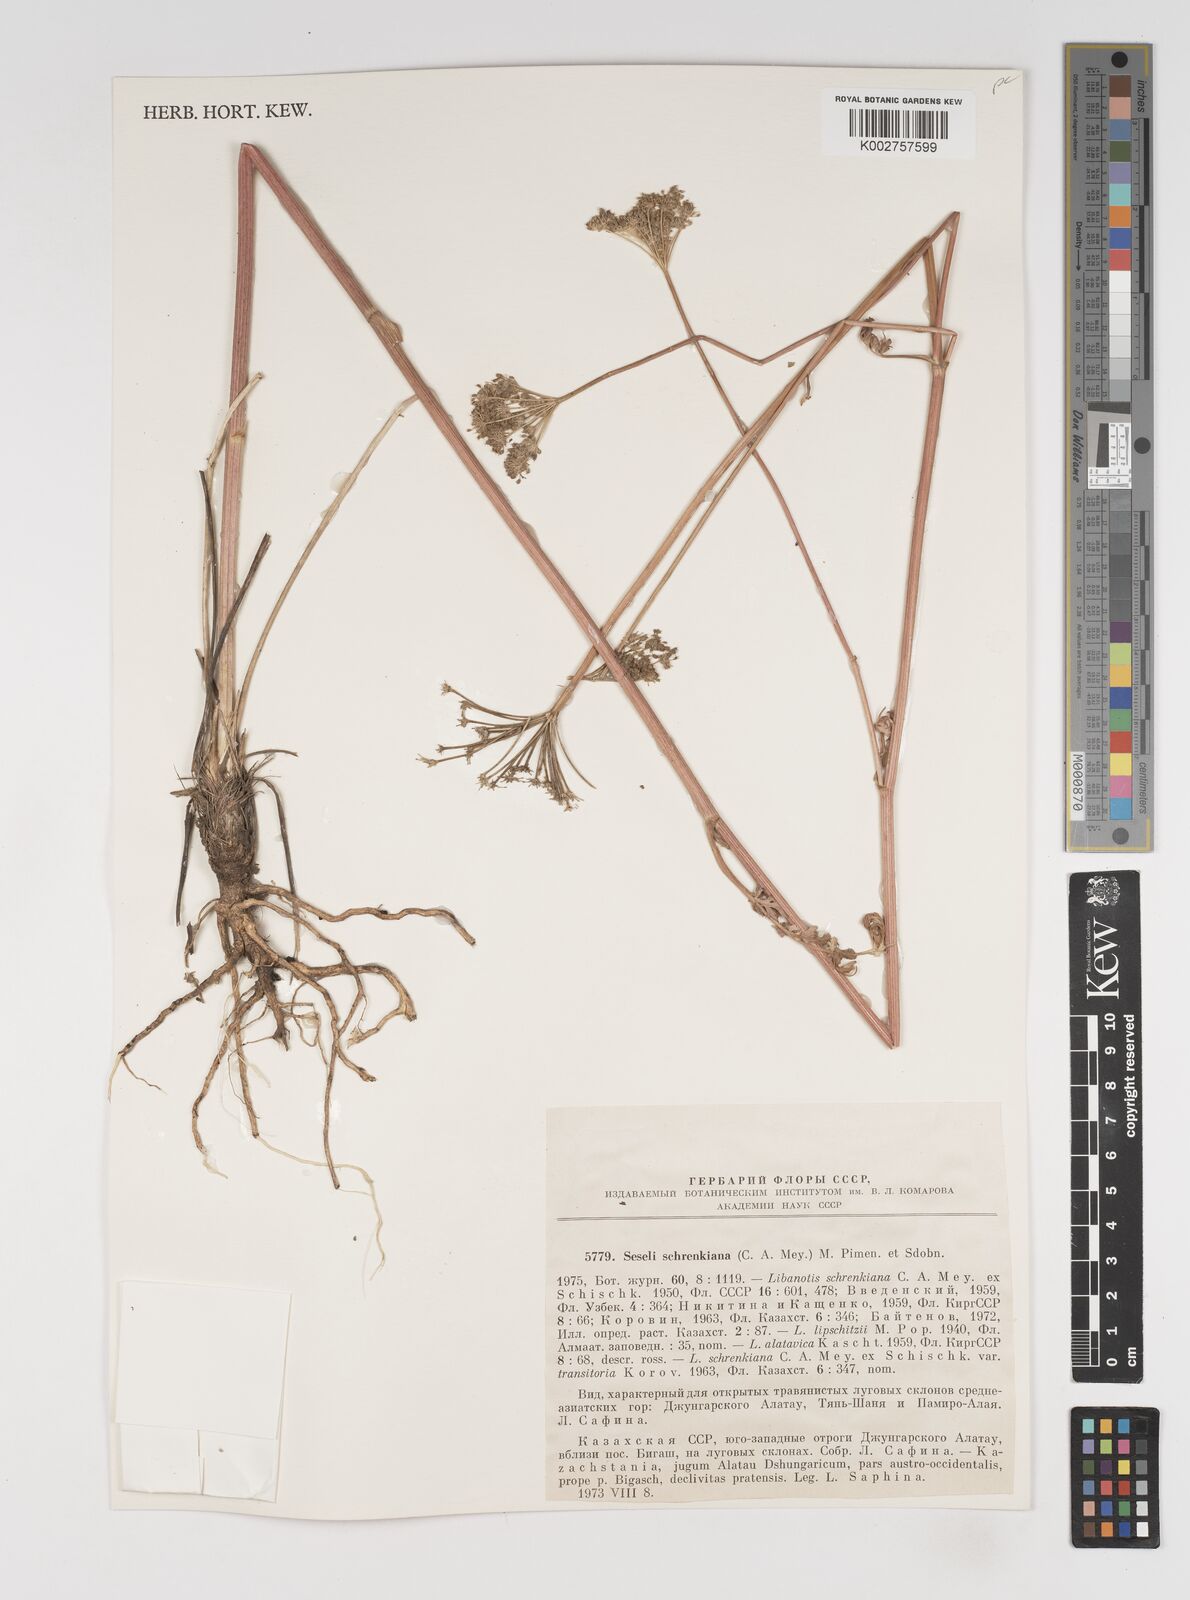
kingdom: Plantae
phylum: Tracheophyta
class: Magnoliopsida
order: Apiales
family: Apiaceae
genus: Seseli
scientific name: Seseli schrenkianum
